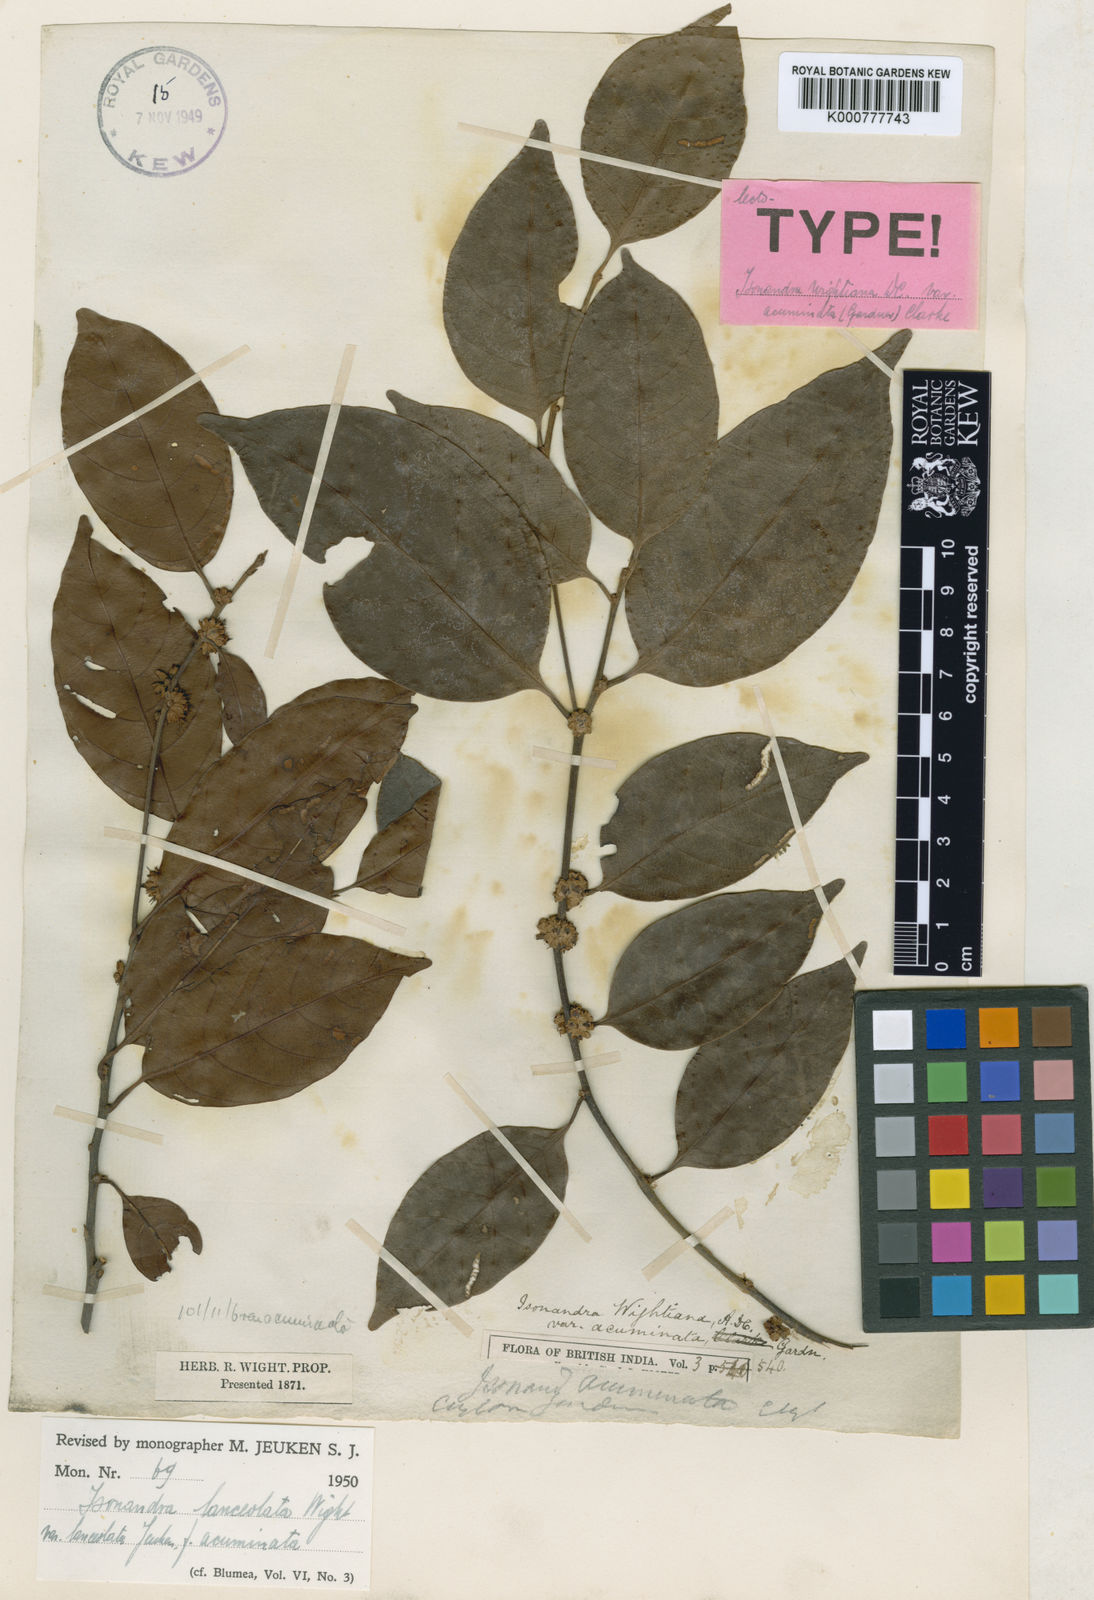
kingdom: Plantae
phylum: Tracheophyta
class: Magnoliopsida
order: Ericales
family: Sapotaceae
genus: Isonandra
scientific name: Isonandra lanceolata
